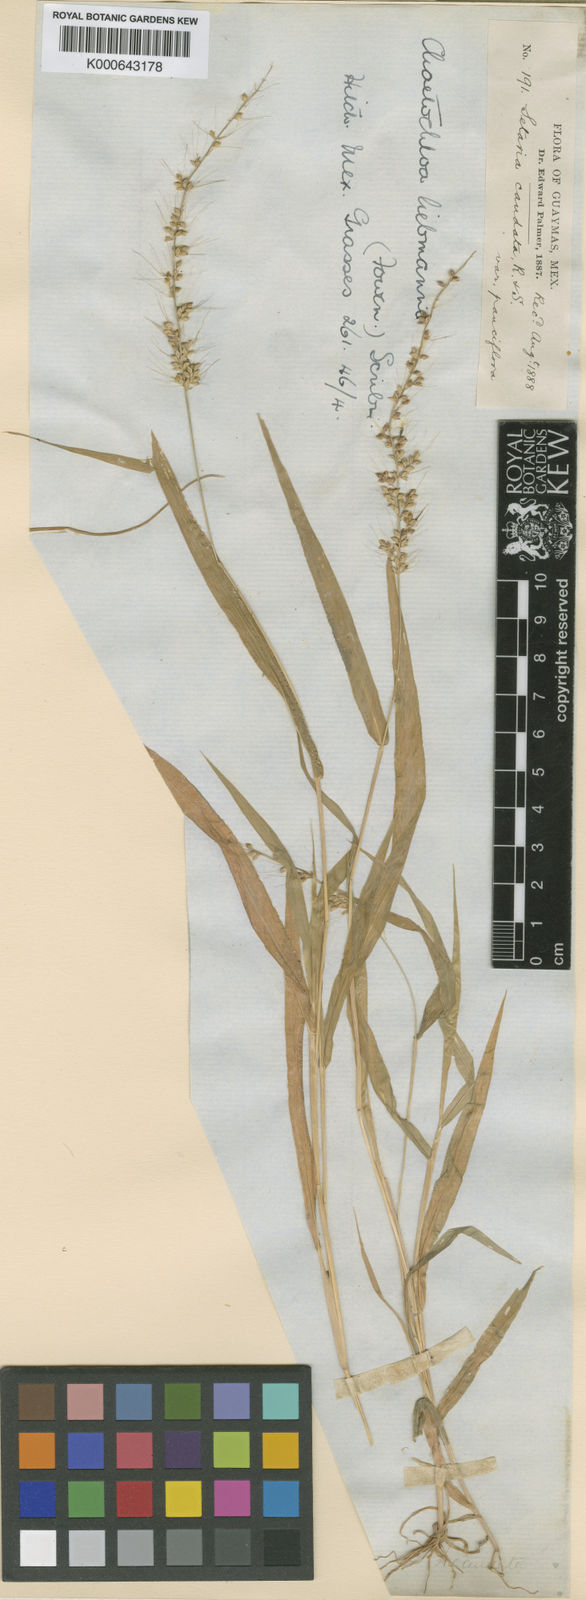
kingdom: Plantae
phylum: Tracheophyta
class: Liliopsida
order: Poales
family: Poaceae
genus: Setaria
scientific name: Setaria liebmannii
